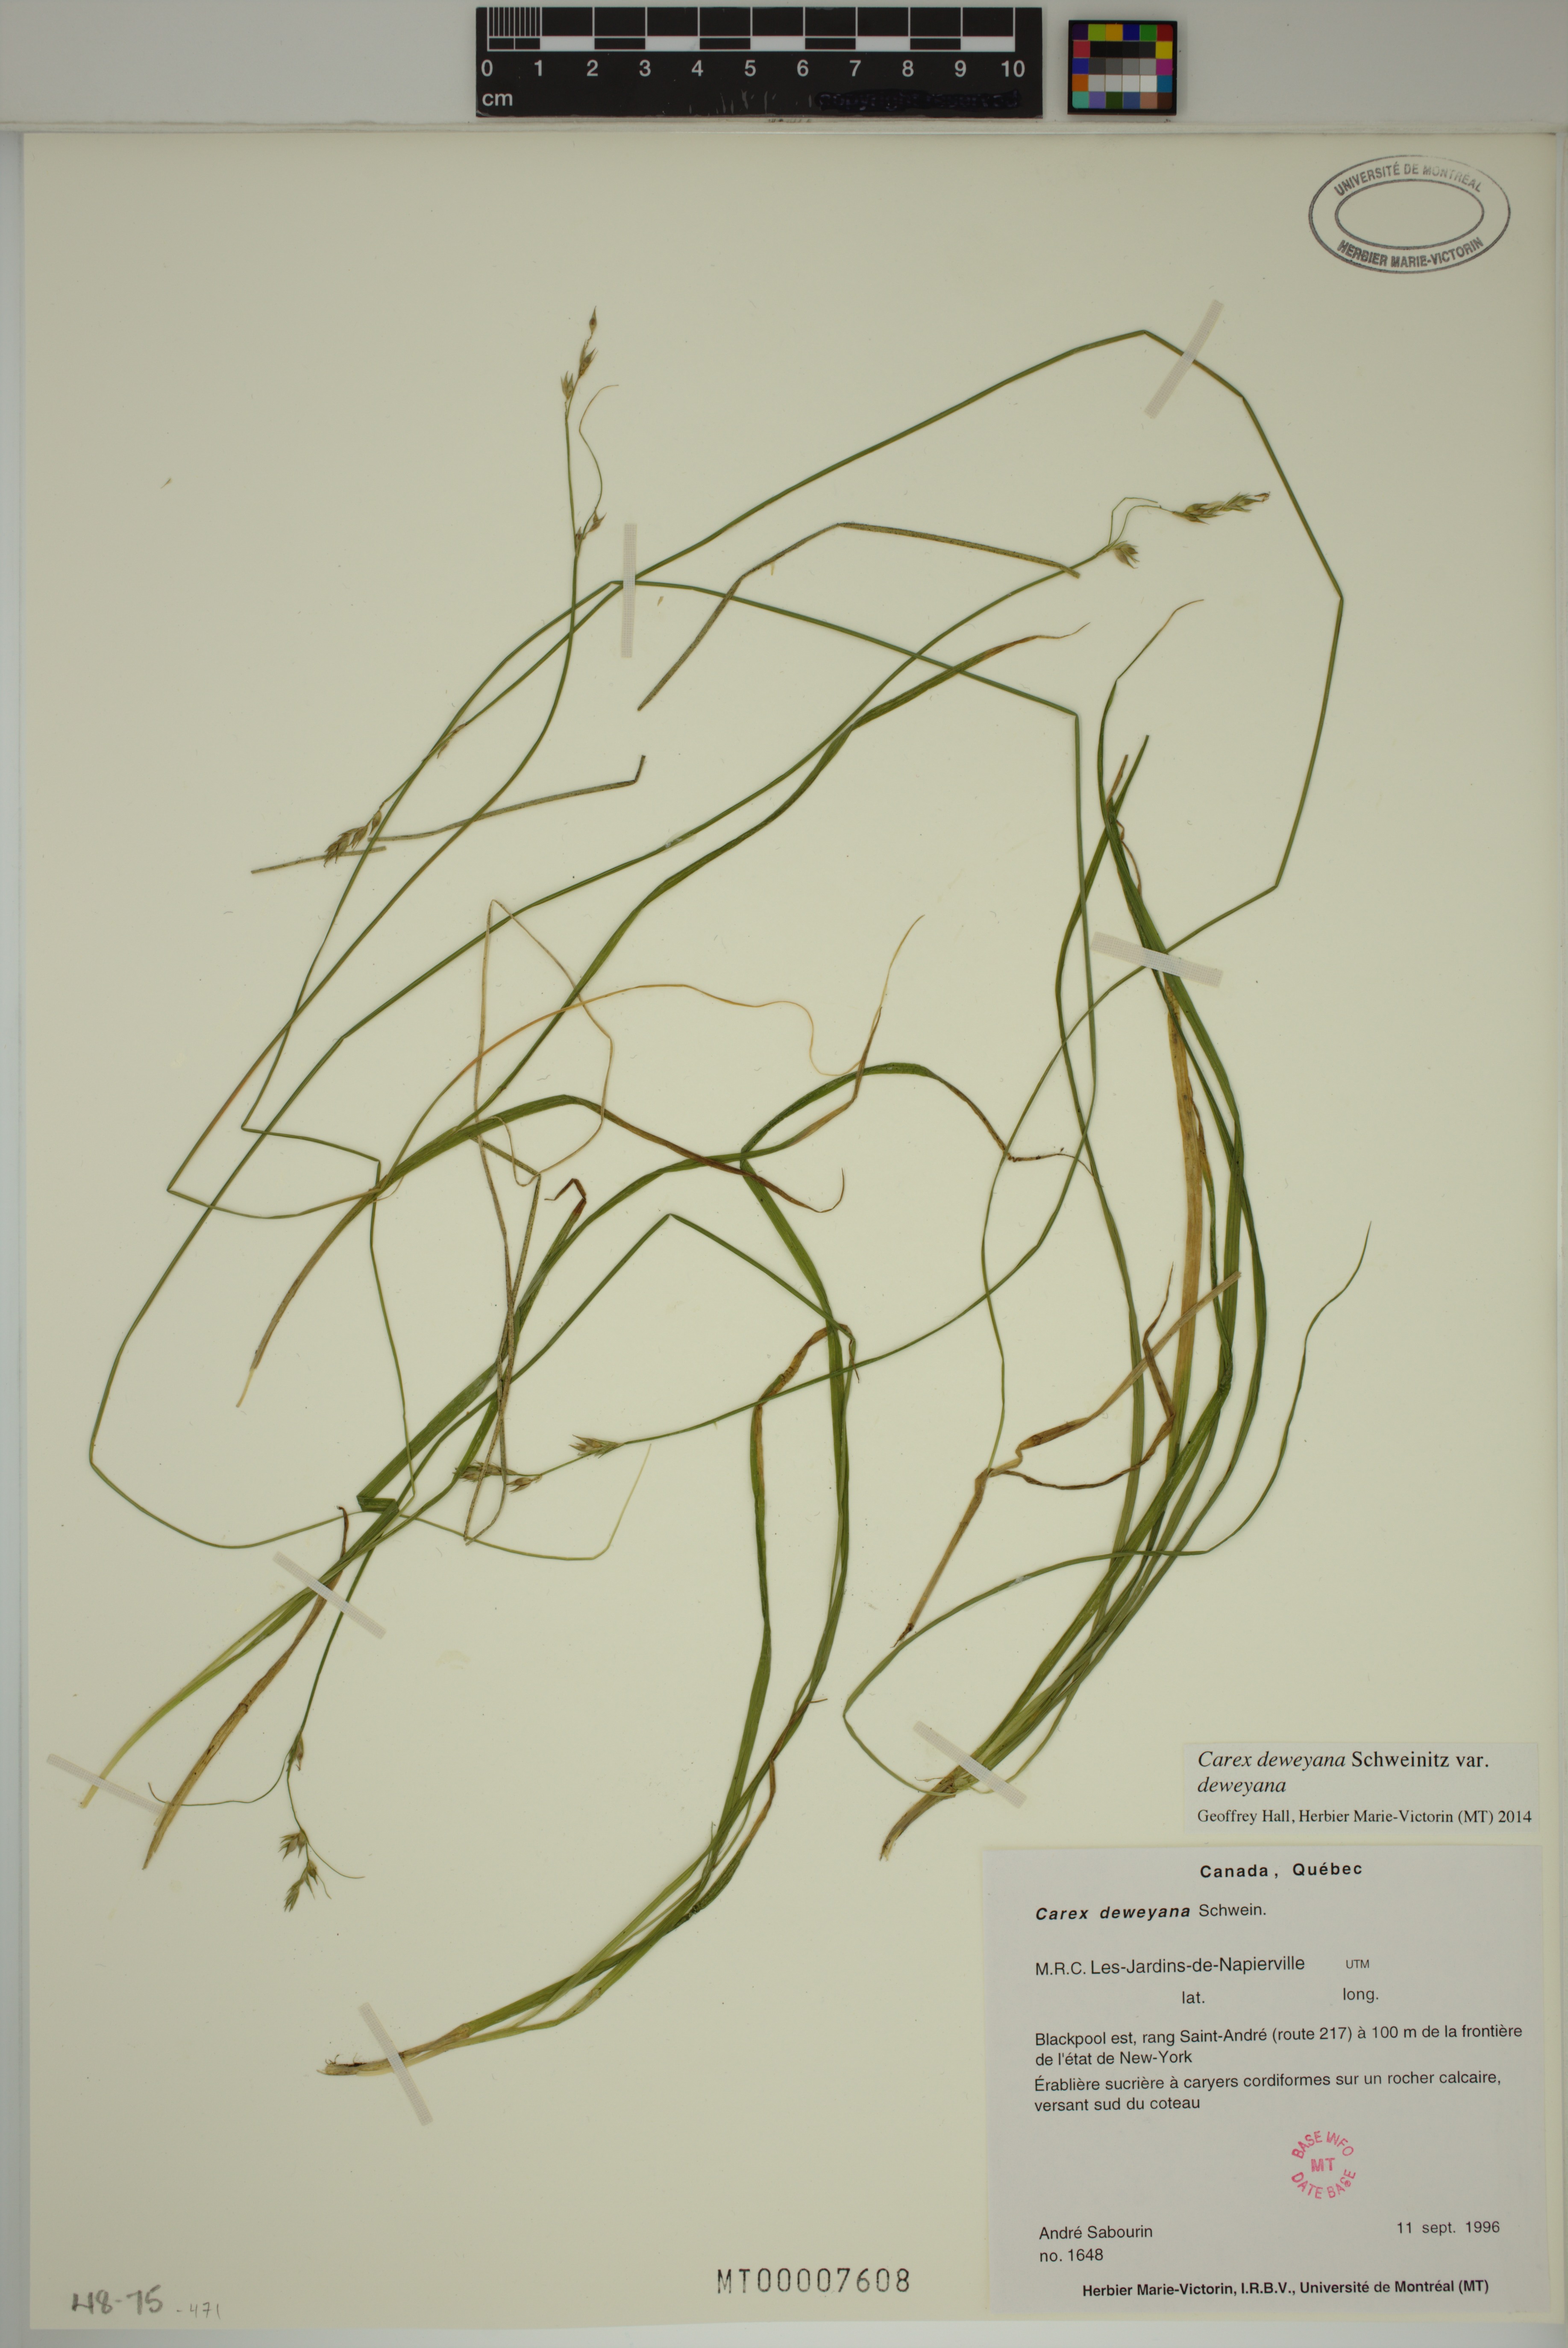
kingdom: Plantae
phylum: Tracheophyta
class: Liliopsida
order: Poales
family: Cyperaceae
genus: Carex
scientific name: Carex deweyana
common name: Dewey's sedge
